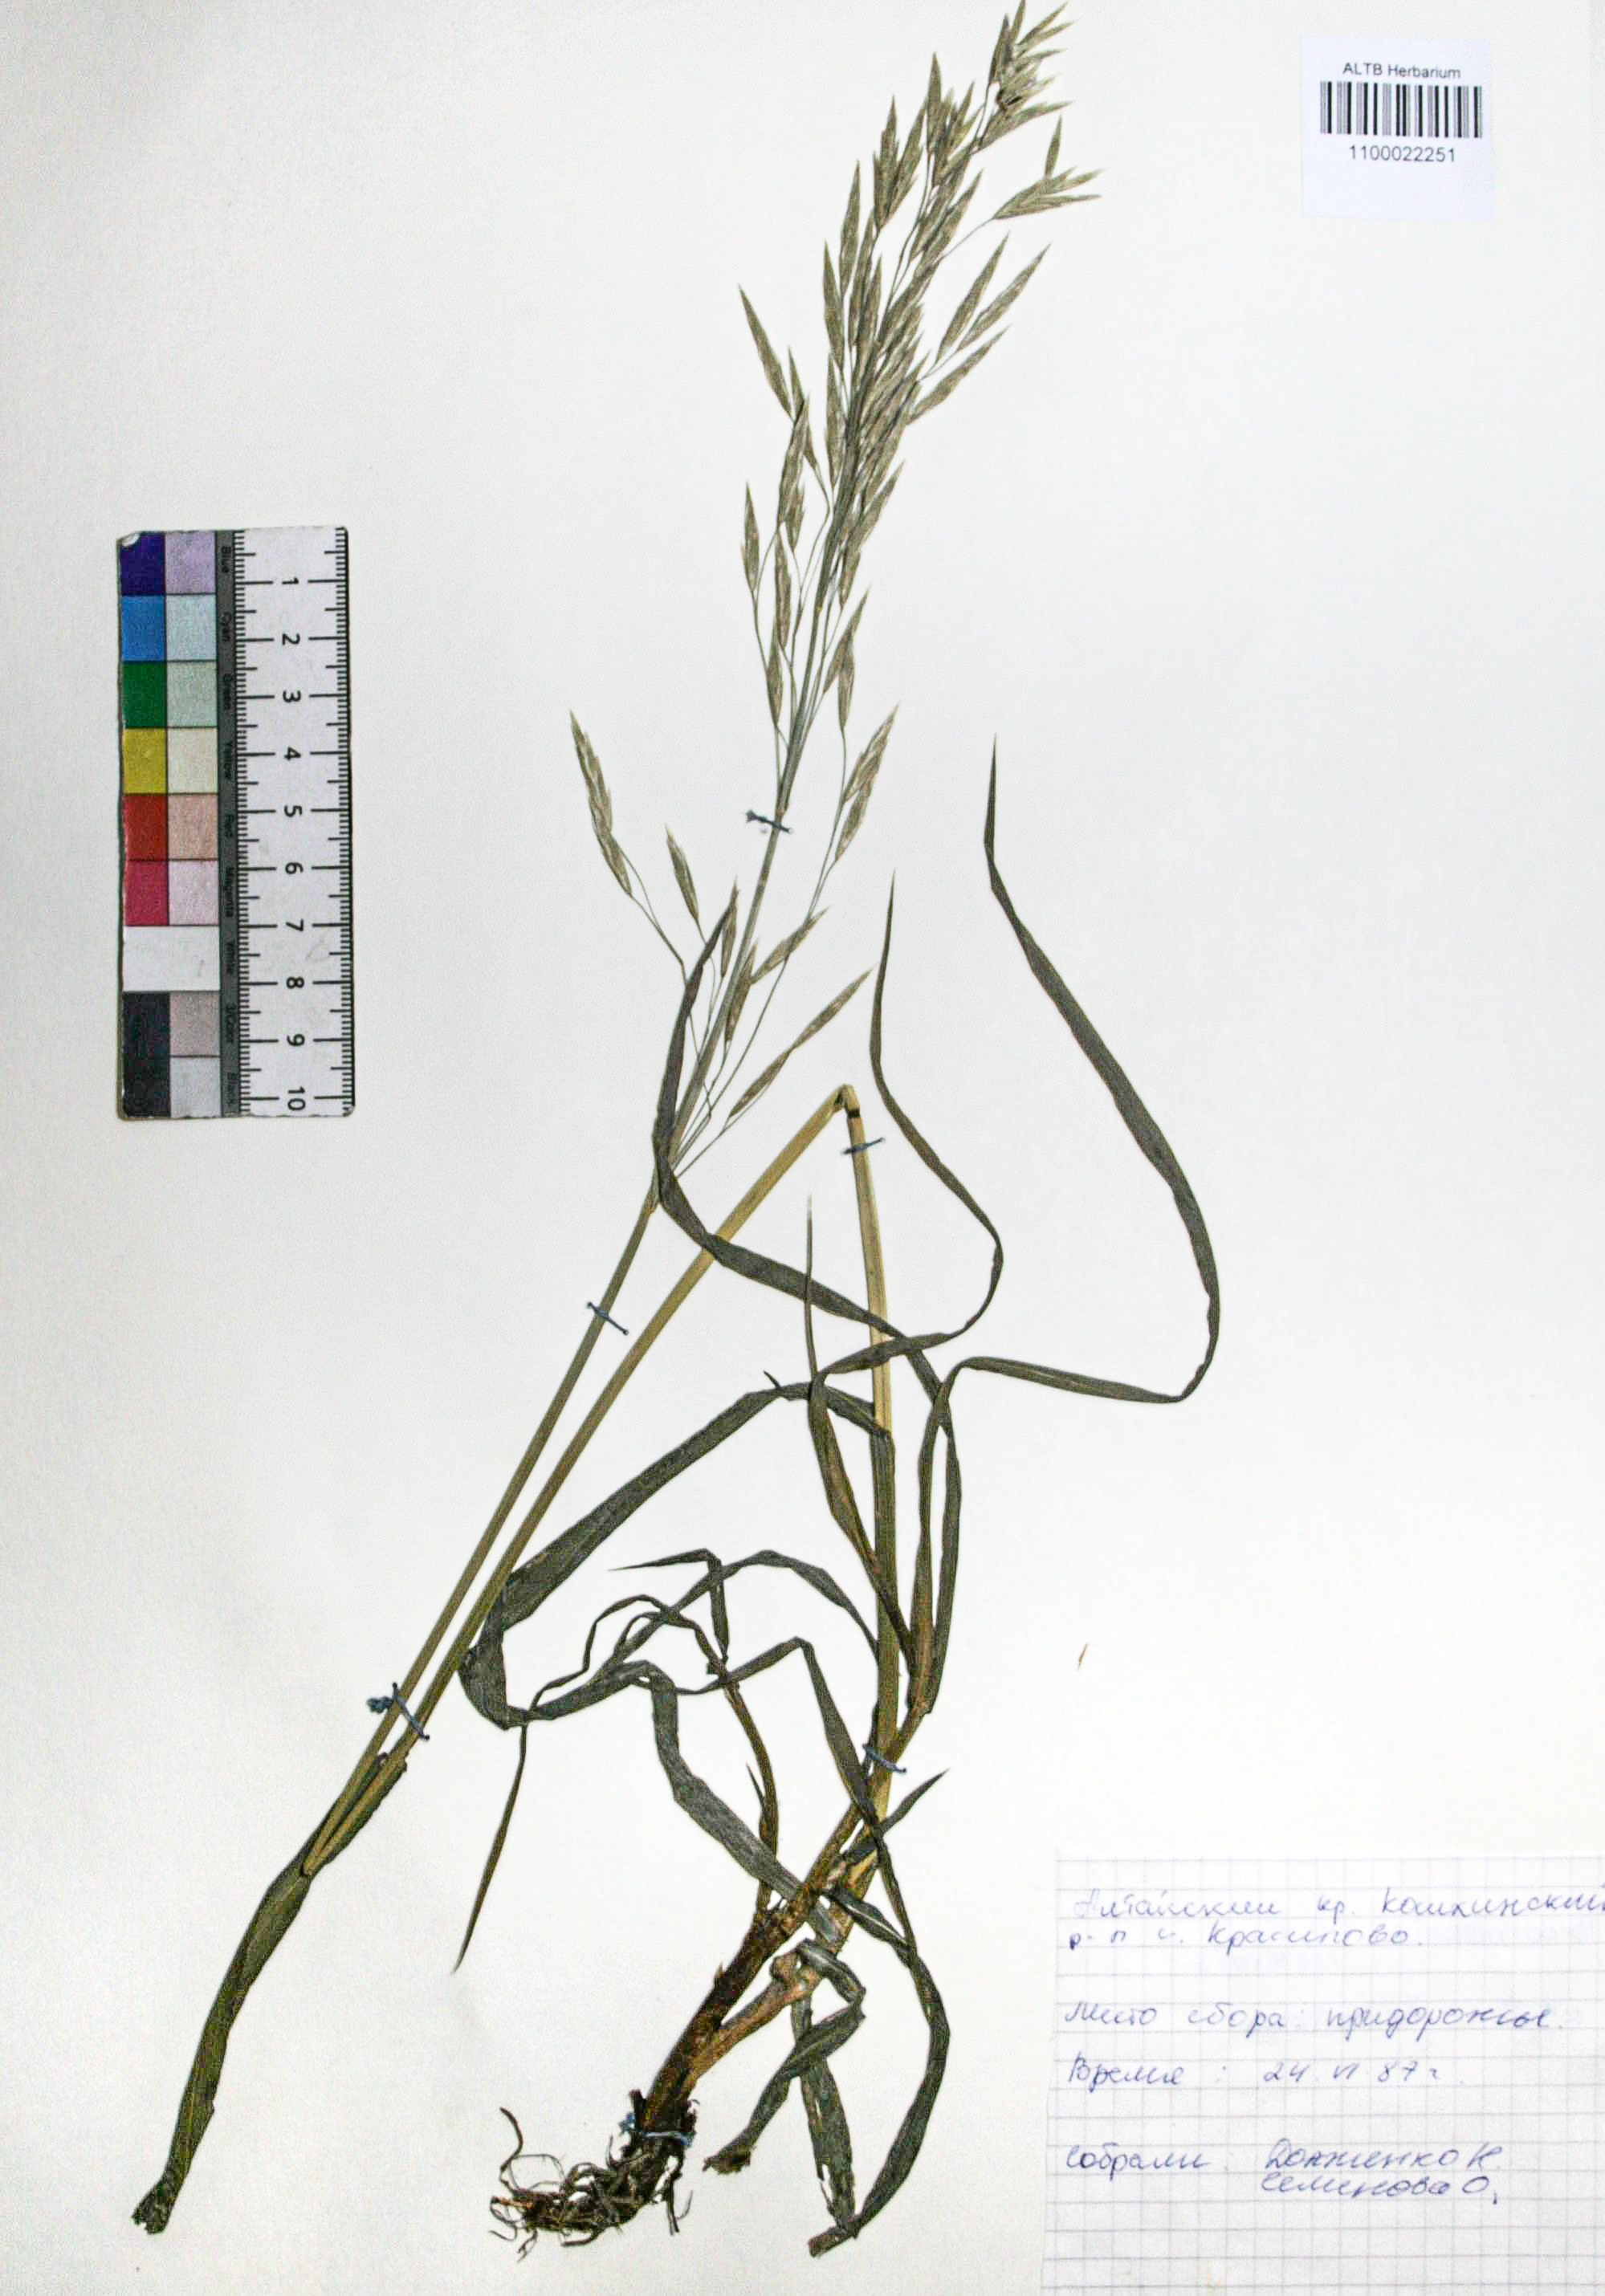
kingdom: Plantae
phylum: Tracheophyta
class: Liliopsida
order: Poales
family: Poaceae
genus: Bromus
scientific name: Bromus inermis
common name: Smooth brome
